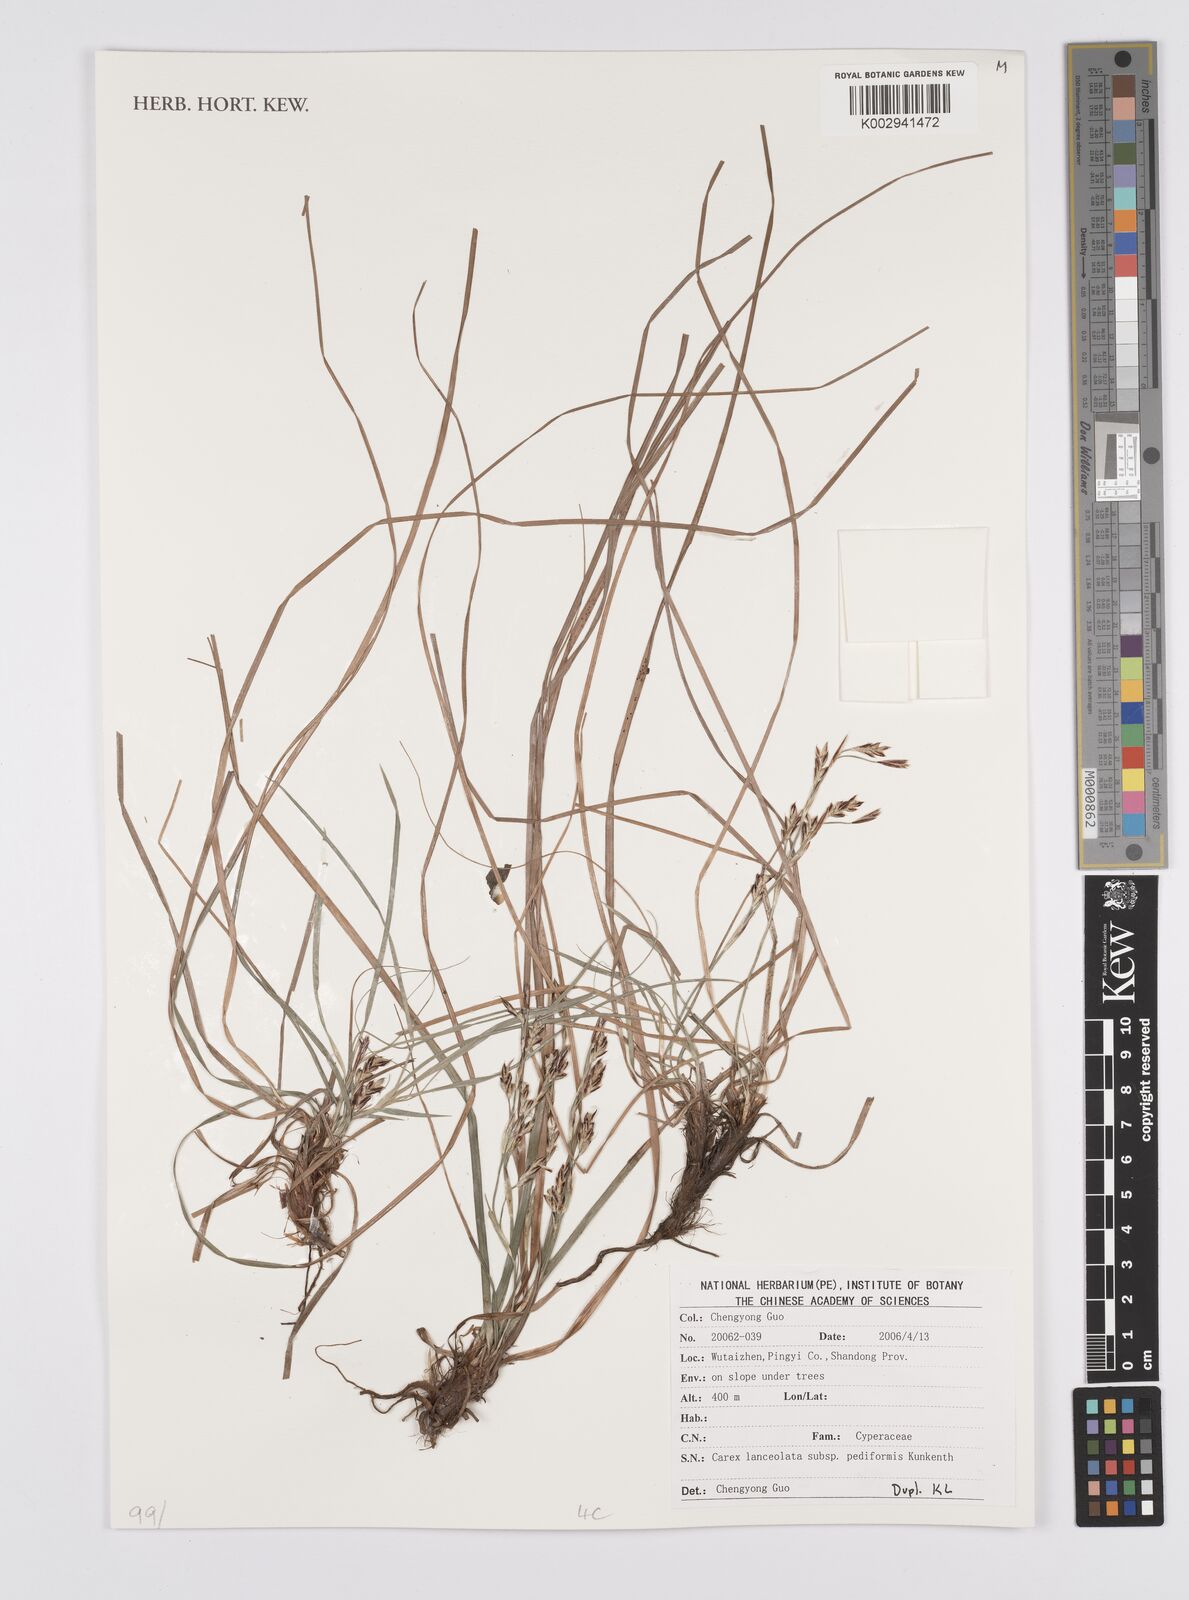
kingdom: Plantae
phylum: Tracheophyta
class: Liliopsida
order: Poales
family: Cyperaceae
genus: Carex
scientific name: Carex lanceolata
